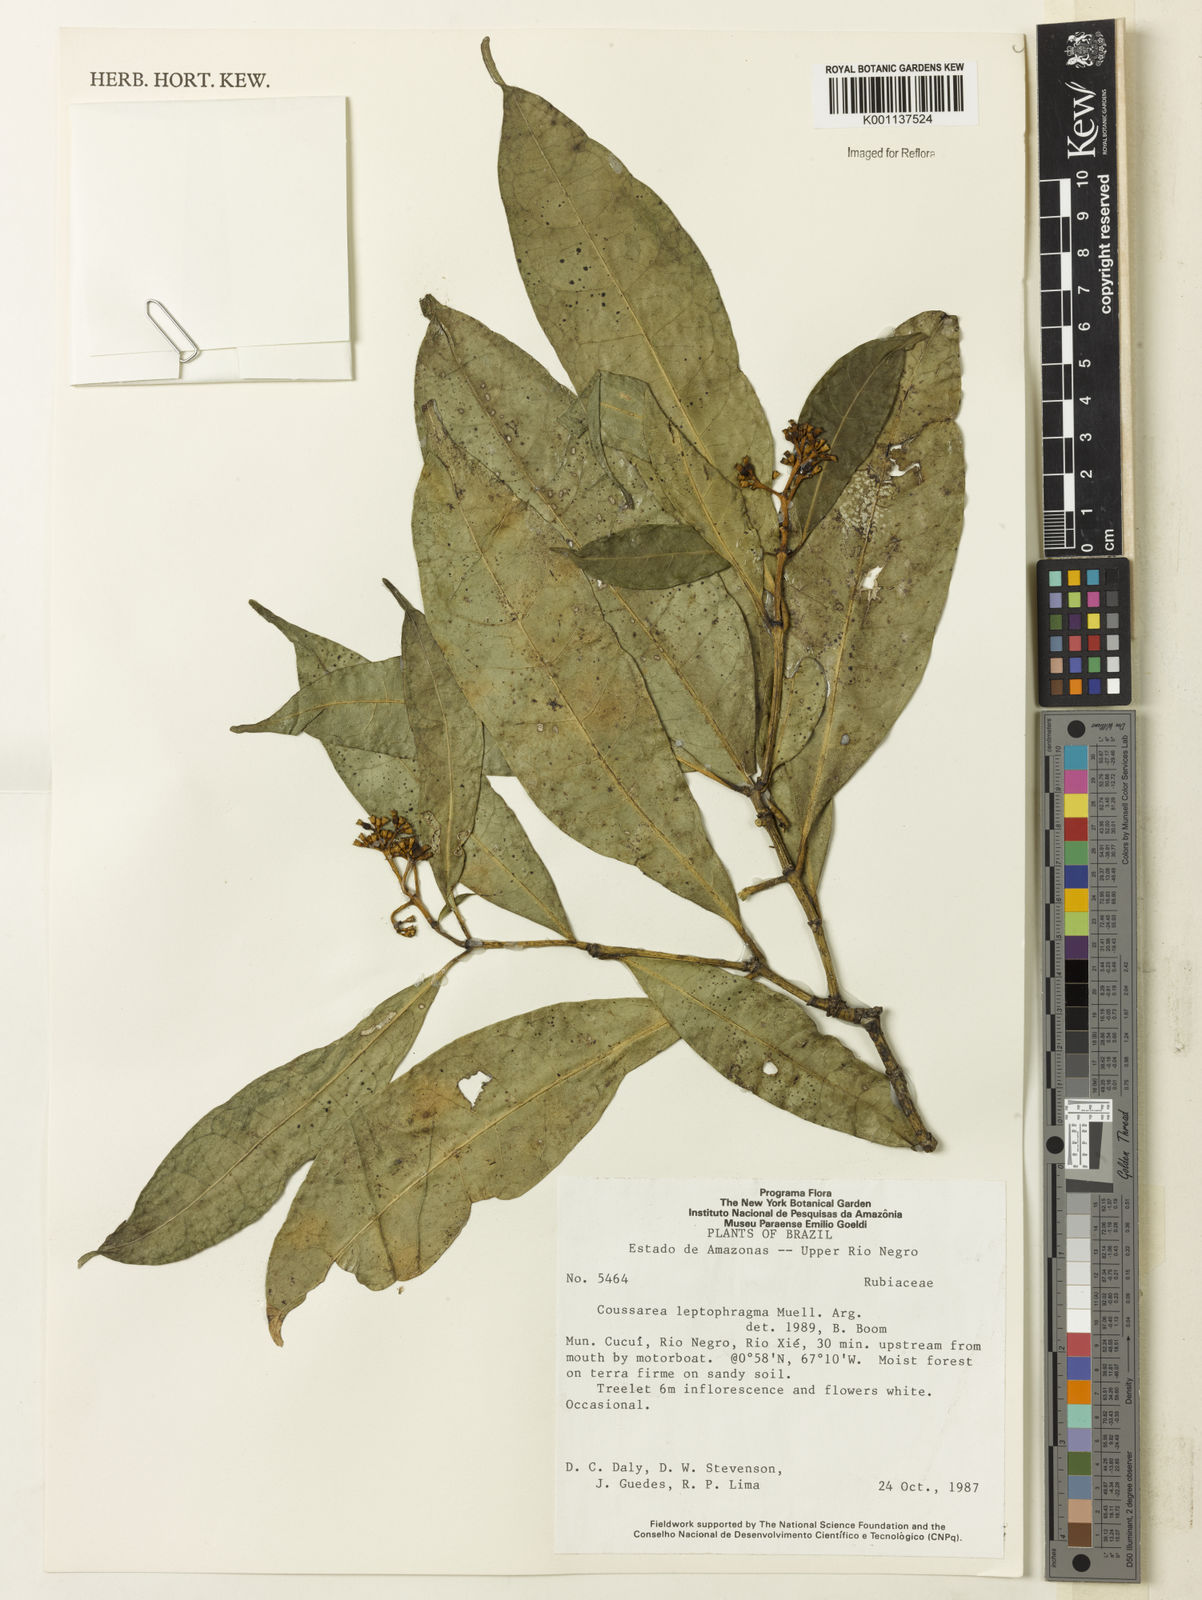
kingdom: Plantae
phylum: Tracheophyta
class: Magnoliopsida
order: Gentianales
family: Rubiaceae
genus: Coussarea
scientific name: Coussarea
